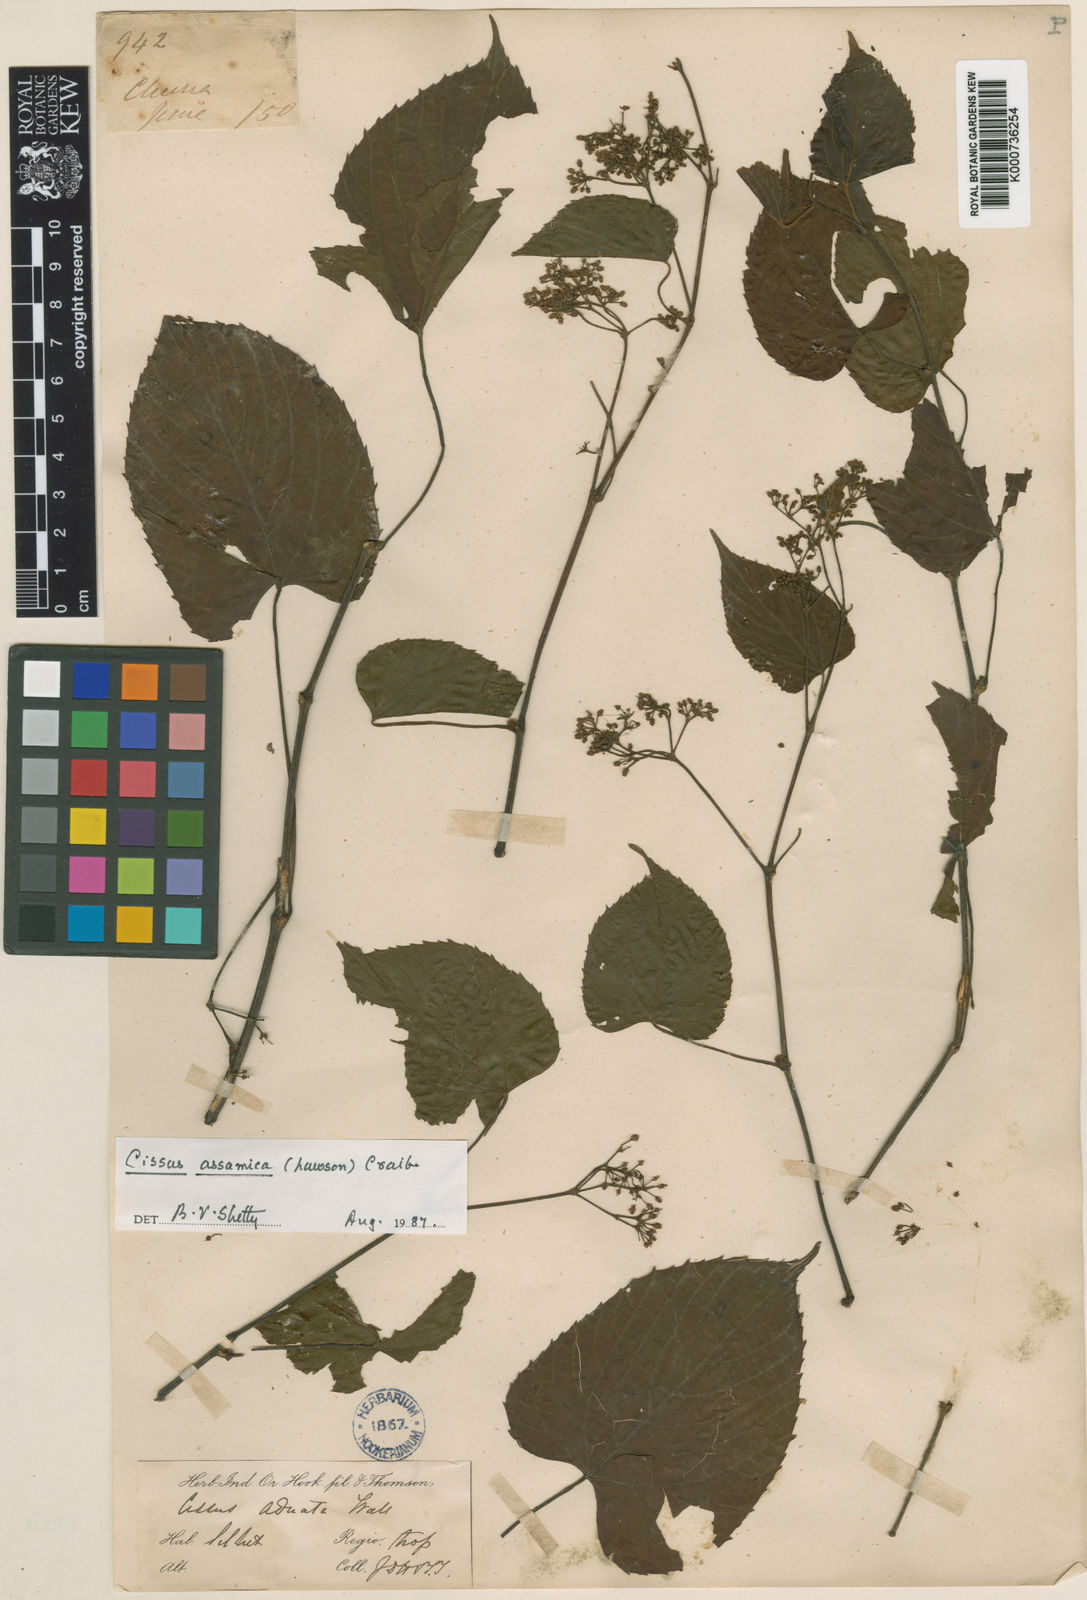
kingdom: Plantae
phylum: Tracheophyta
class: Magnoliopsida
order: Vitales
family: Vitaceae
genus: Cissus
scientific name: Cissus assamica
